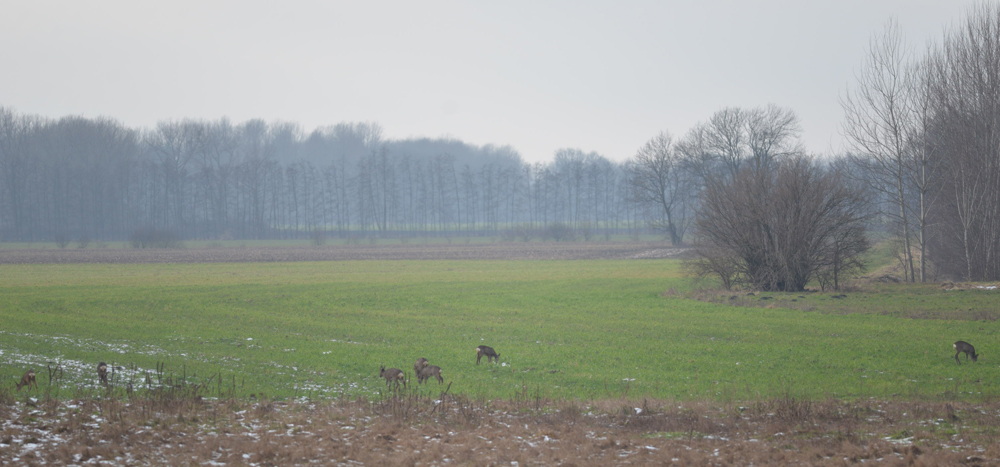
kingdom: Animalia
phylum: Chordata
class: Mammalia
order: Artiodactyla
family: Cervidae
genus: Capreolus
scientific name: Capreolus capreolus
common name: Western roe deer
